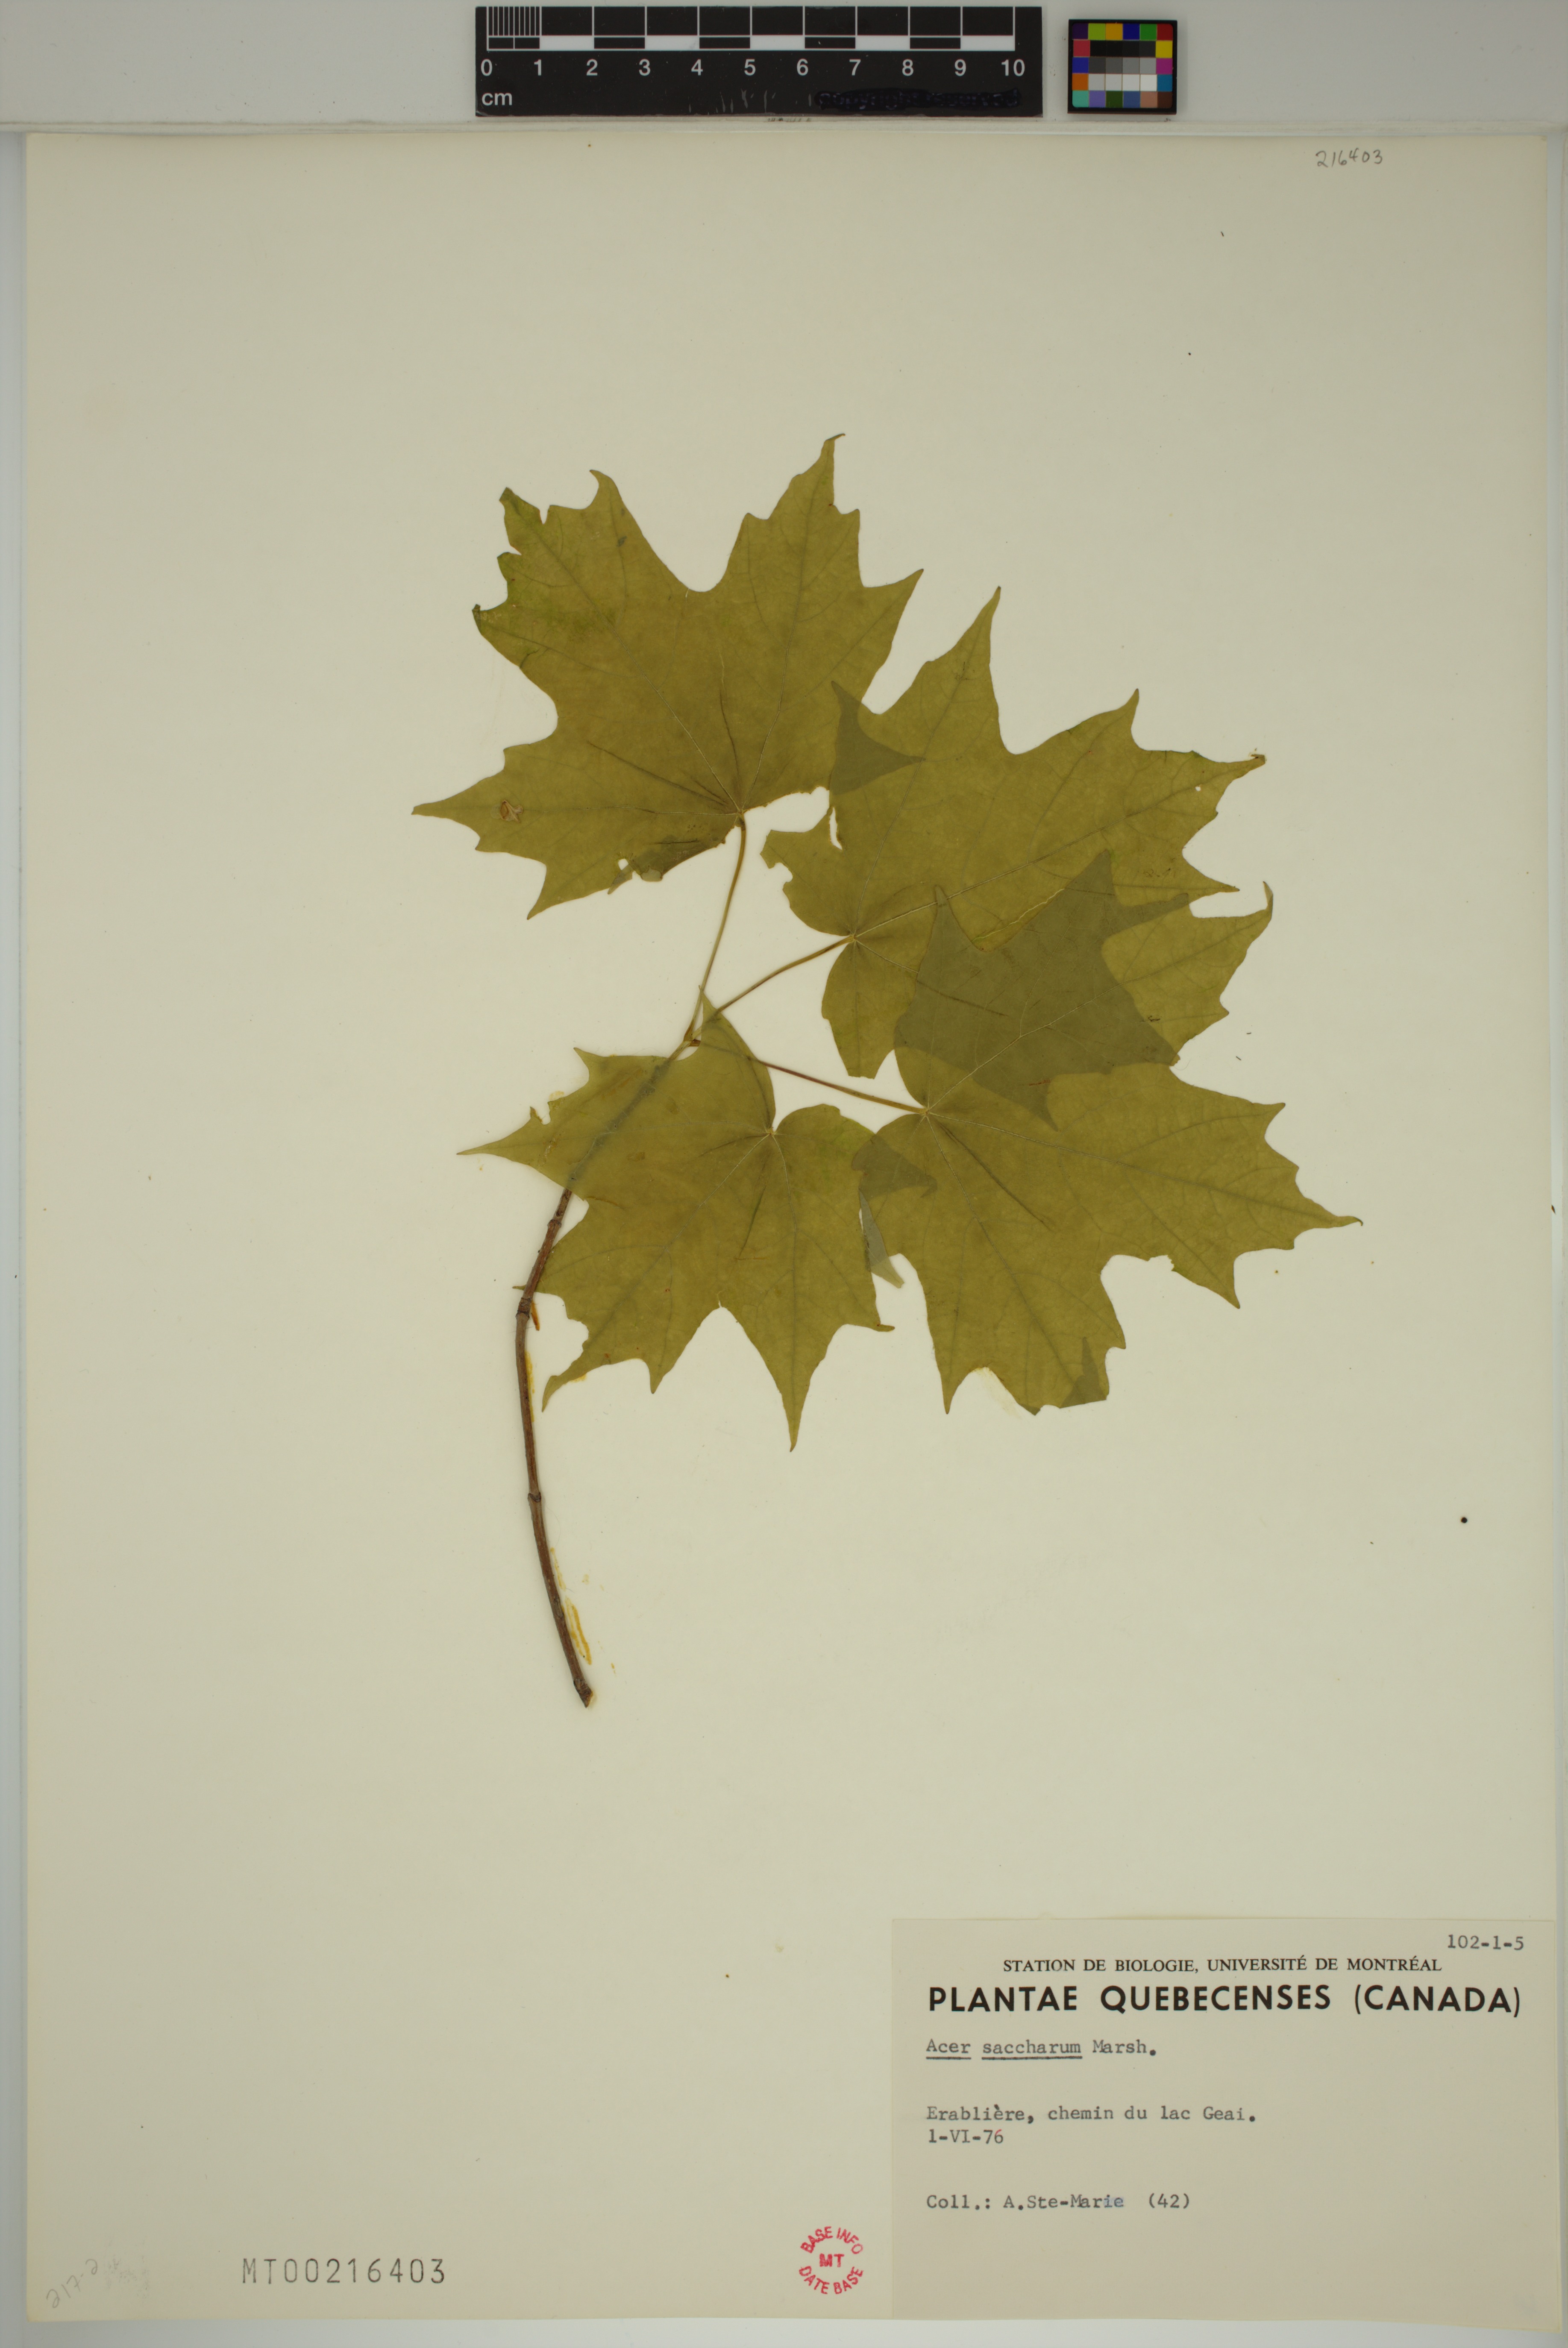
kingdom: Plantae
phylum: Tracheophyta
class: Magnoliopsida
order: Sapindales
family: Sapindaceae
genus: Acer
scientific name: Acer saccharum
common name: Sugar maple
